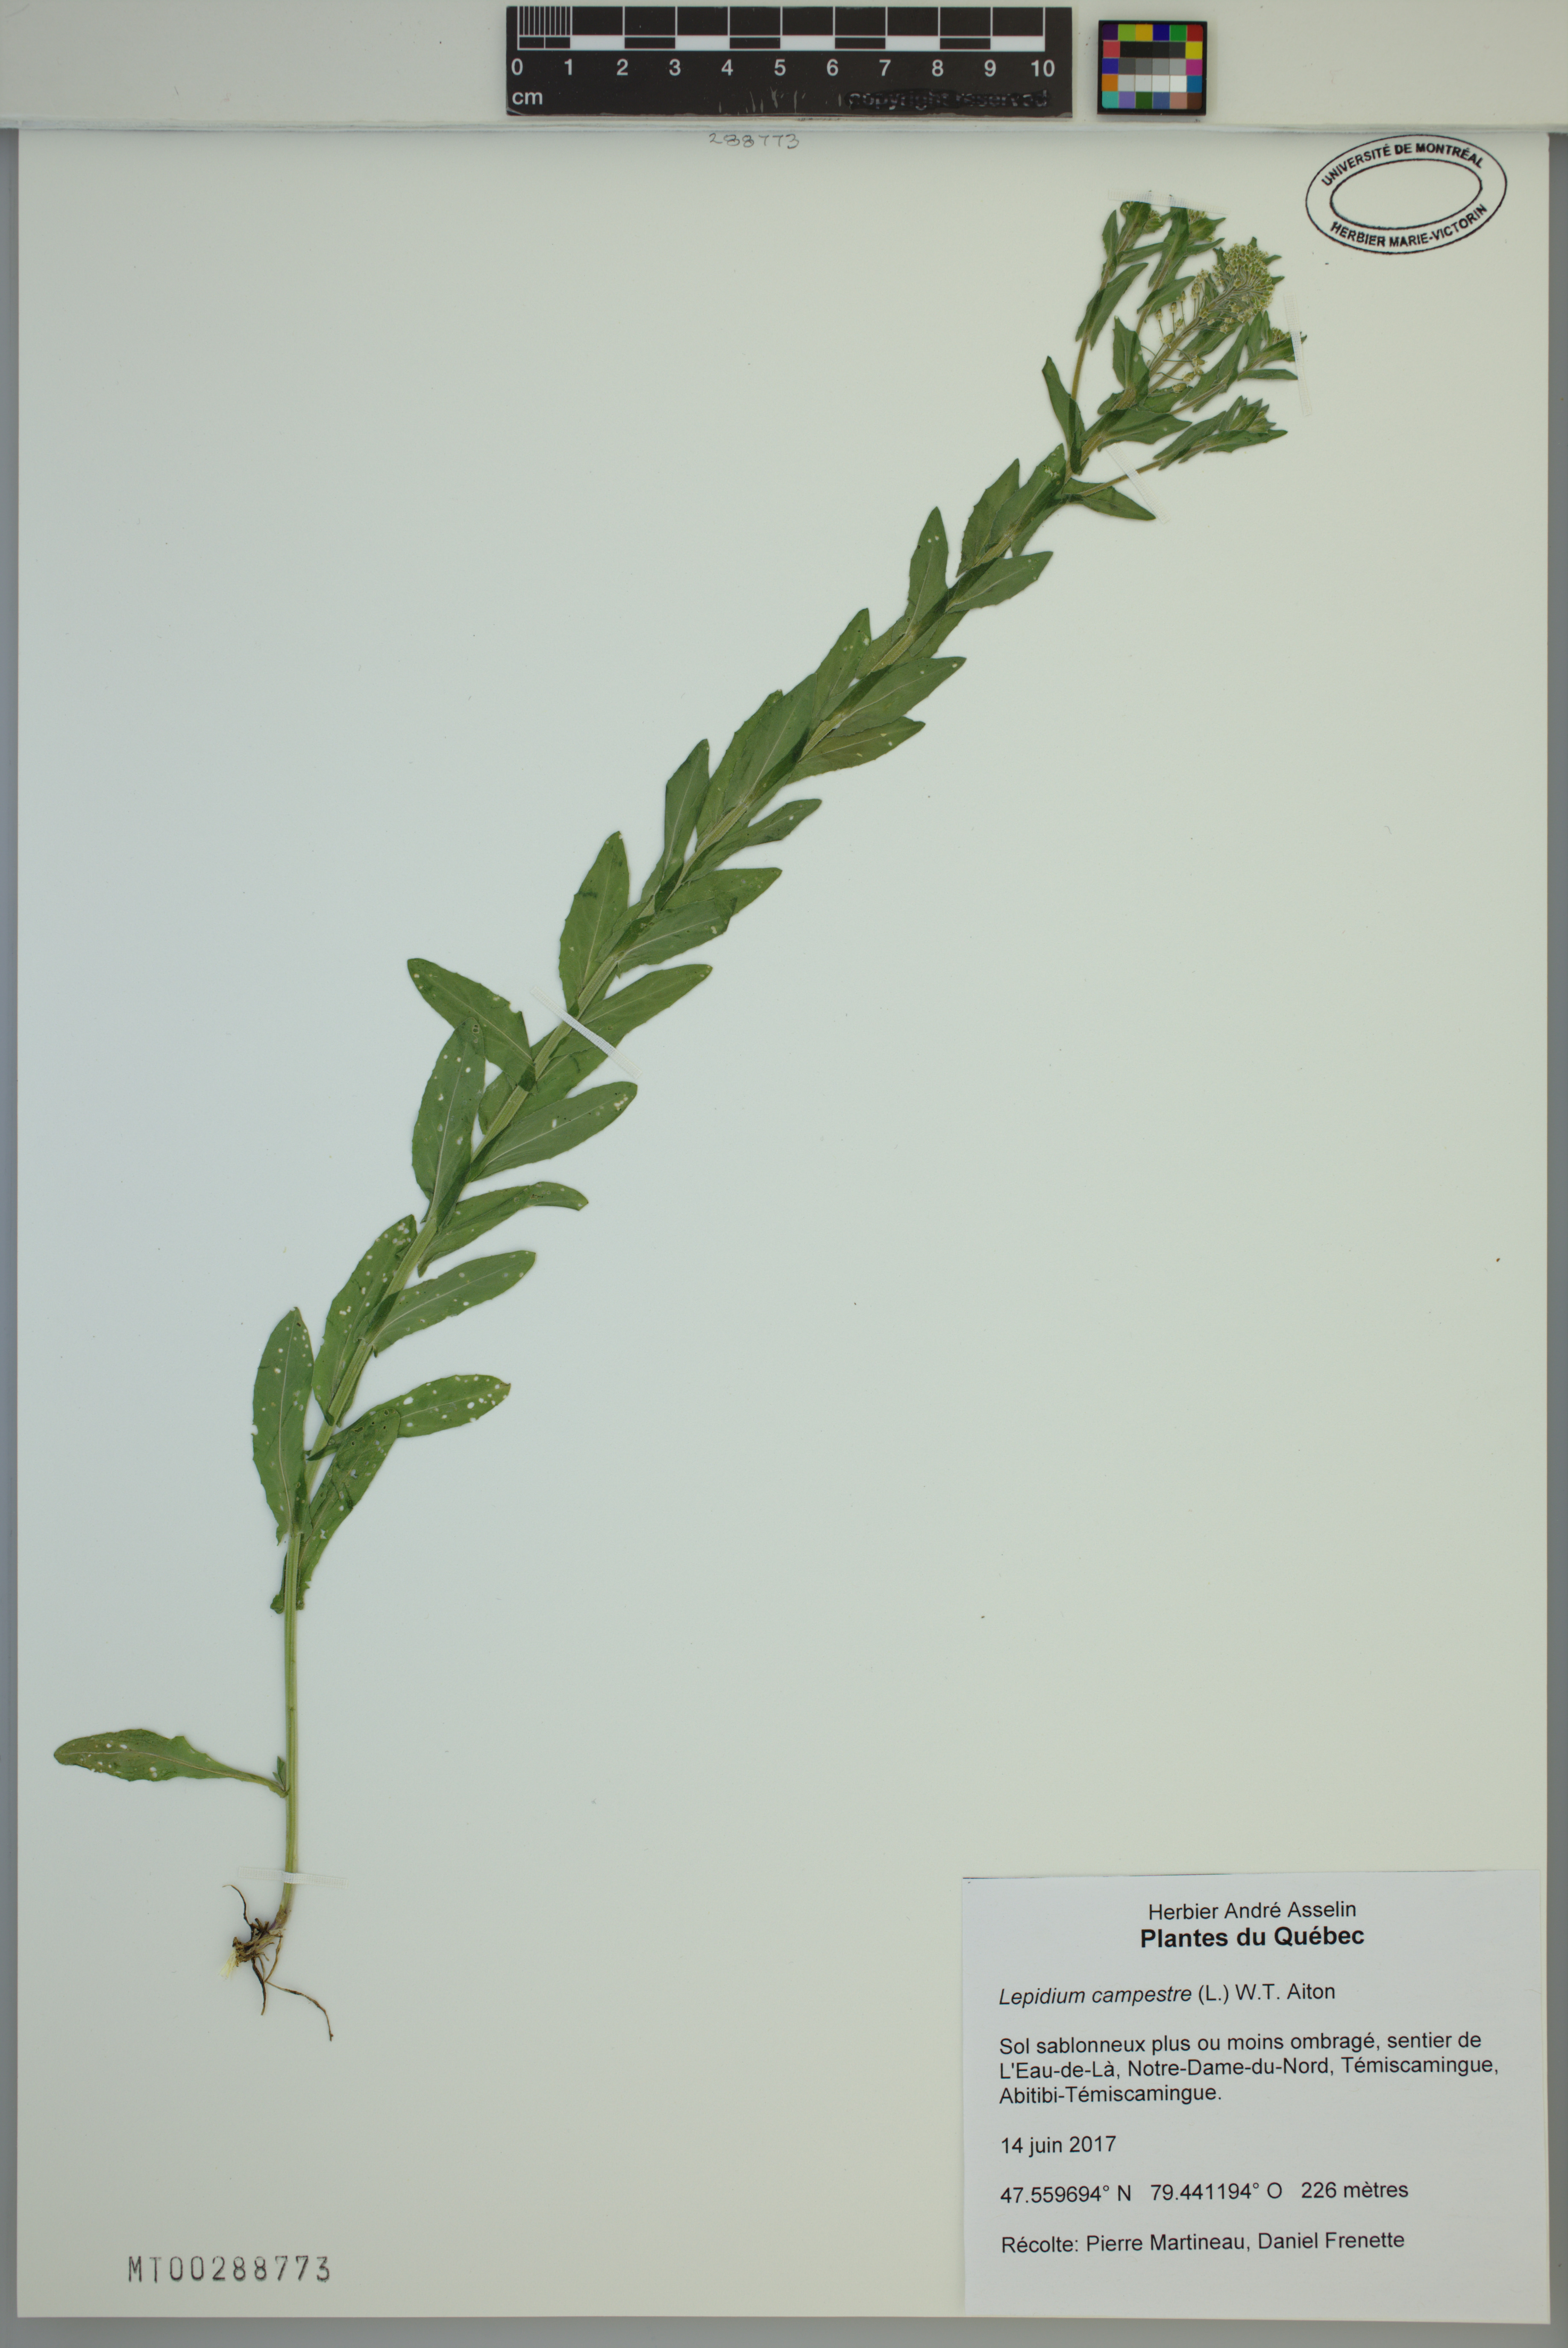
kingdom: Plantae
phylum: Tracheophyta
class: Magnoliopsida
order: Brassicales
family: Brassicaceae
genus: Lepidium
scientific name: Lepidium campestre
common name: Field pepperwort
